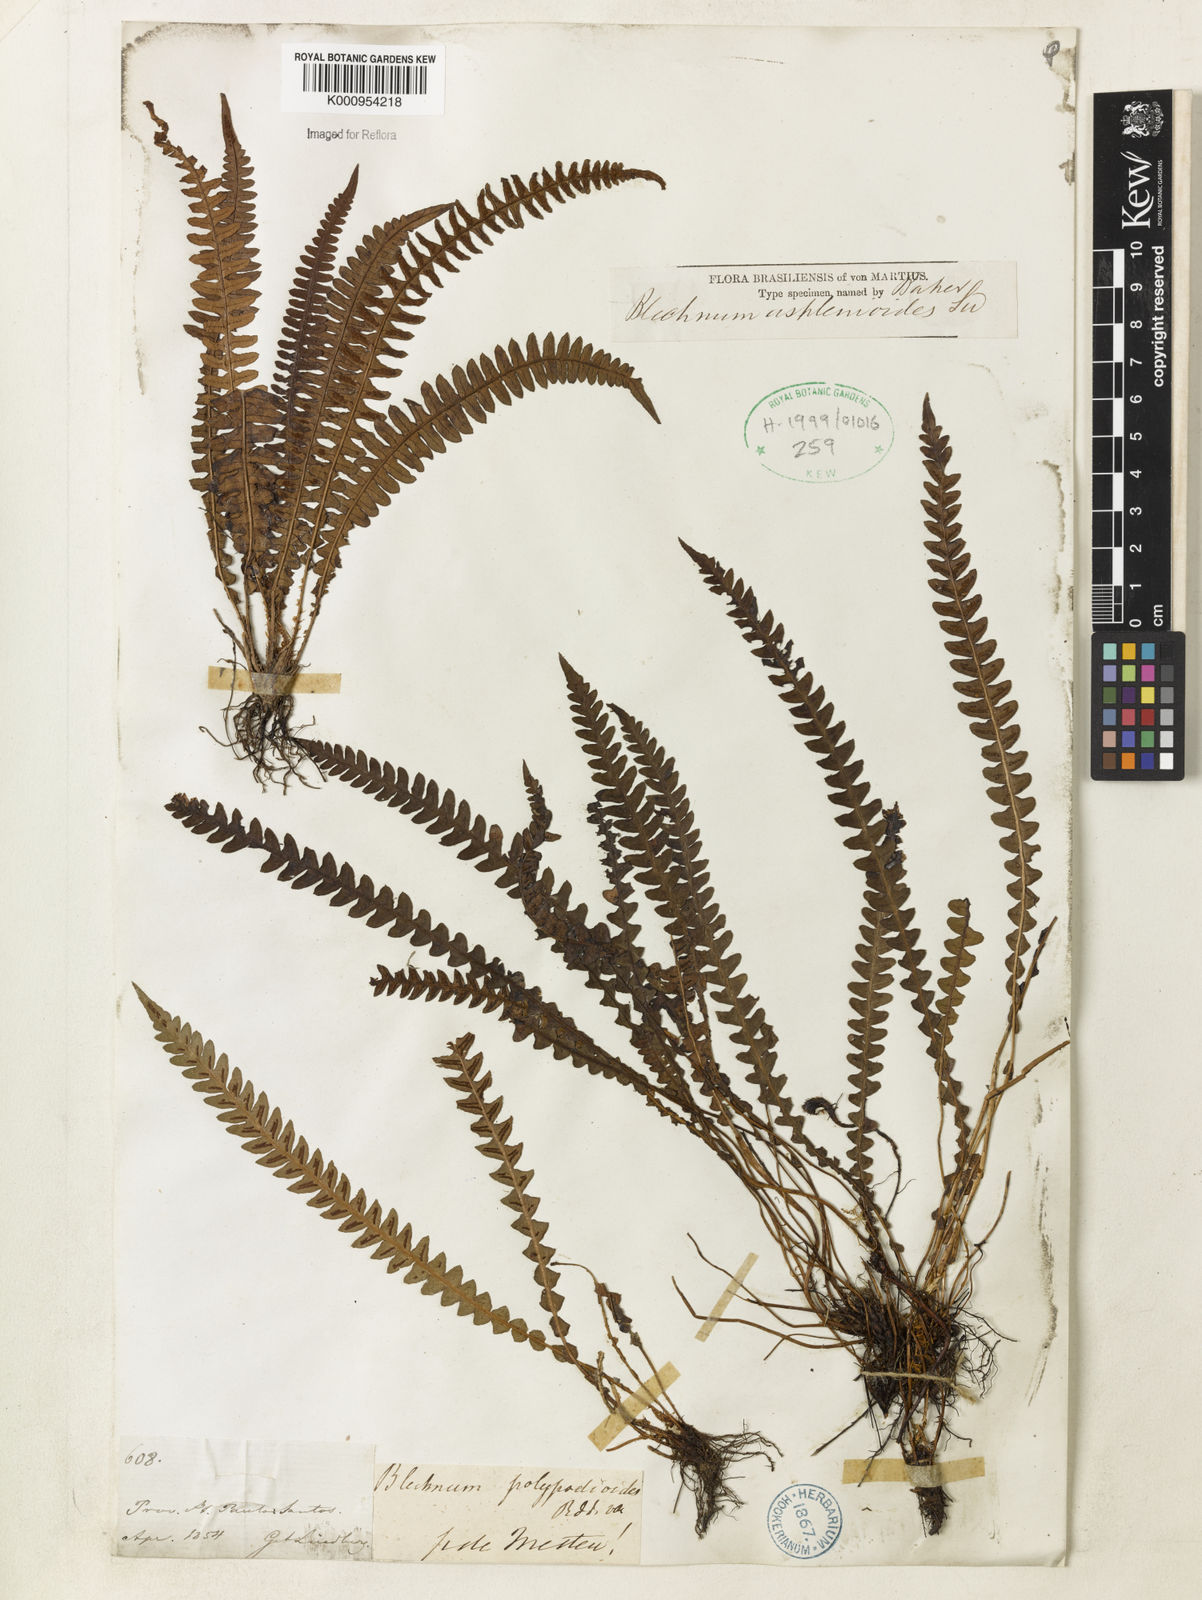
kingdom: Plantae
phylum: Tracheophyta
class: Polypodiopsida
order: Polypodiales
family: Blechnaceae
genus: Blechnum
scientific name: Blechnum asplenioides
